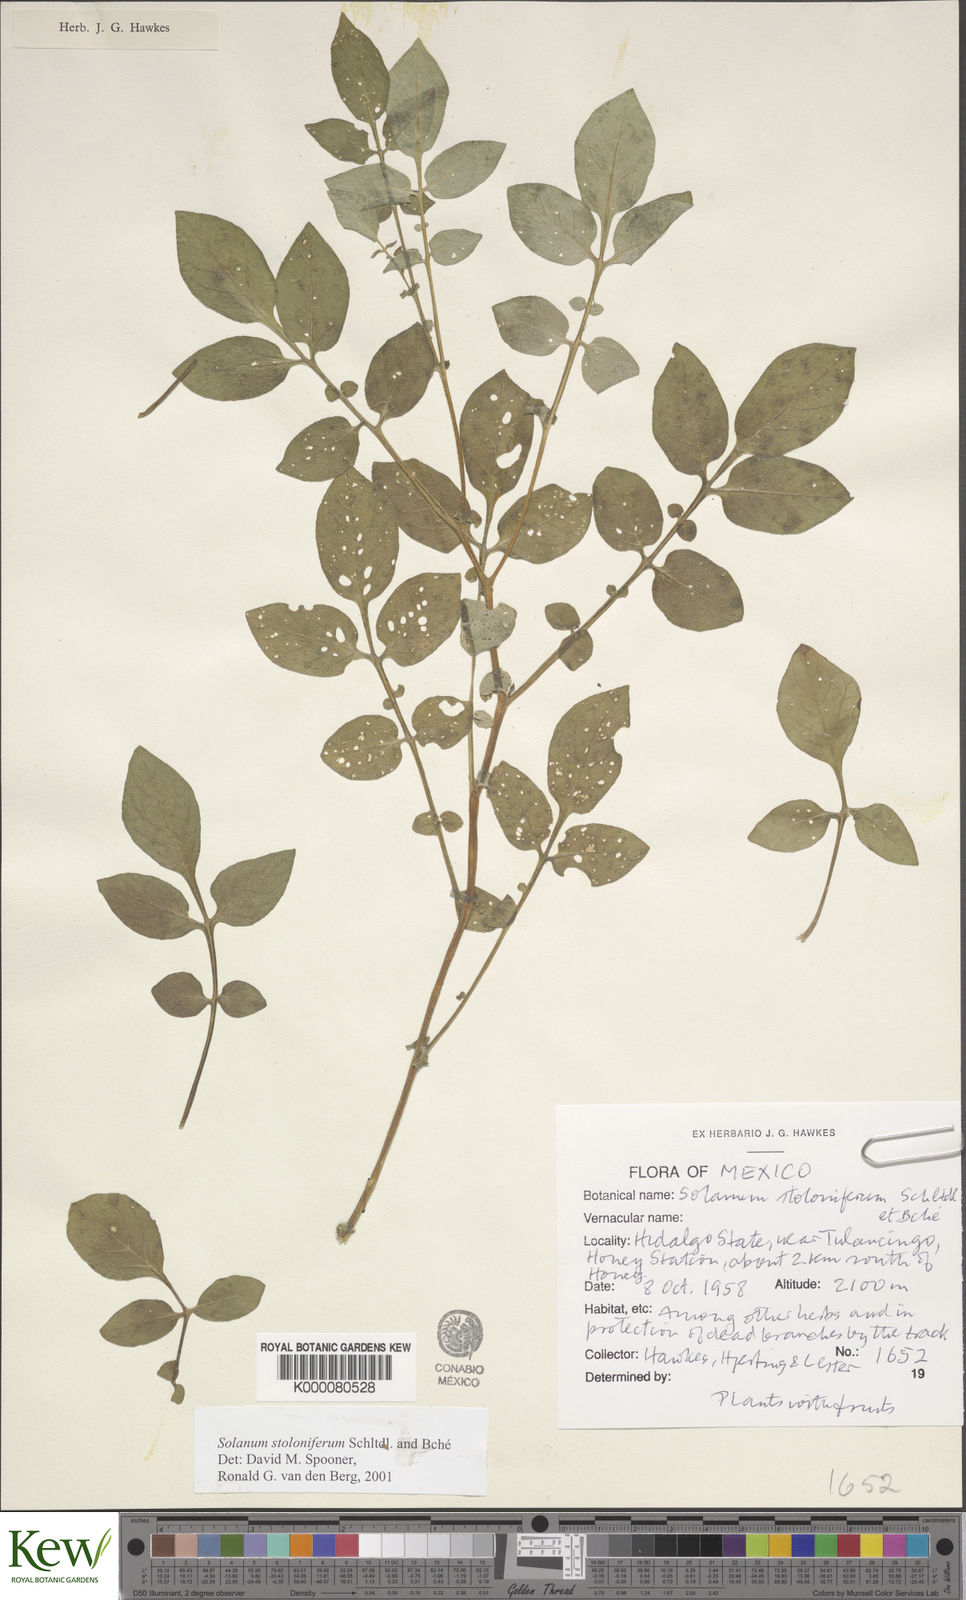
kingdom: Plantae
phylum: Tracheophyta
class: Magnoliopsida
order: Solanales
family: Solanaceae
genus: Solanum
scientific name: Solanum stoloniferum
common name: Fendler's nighshade
